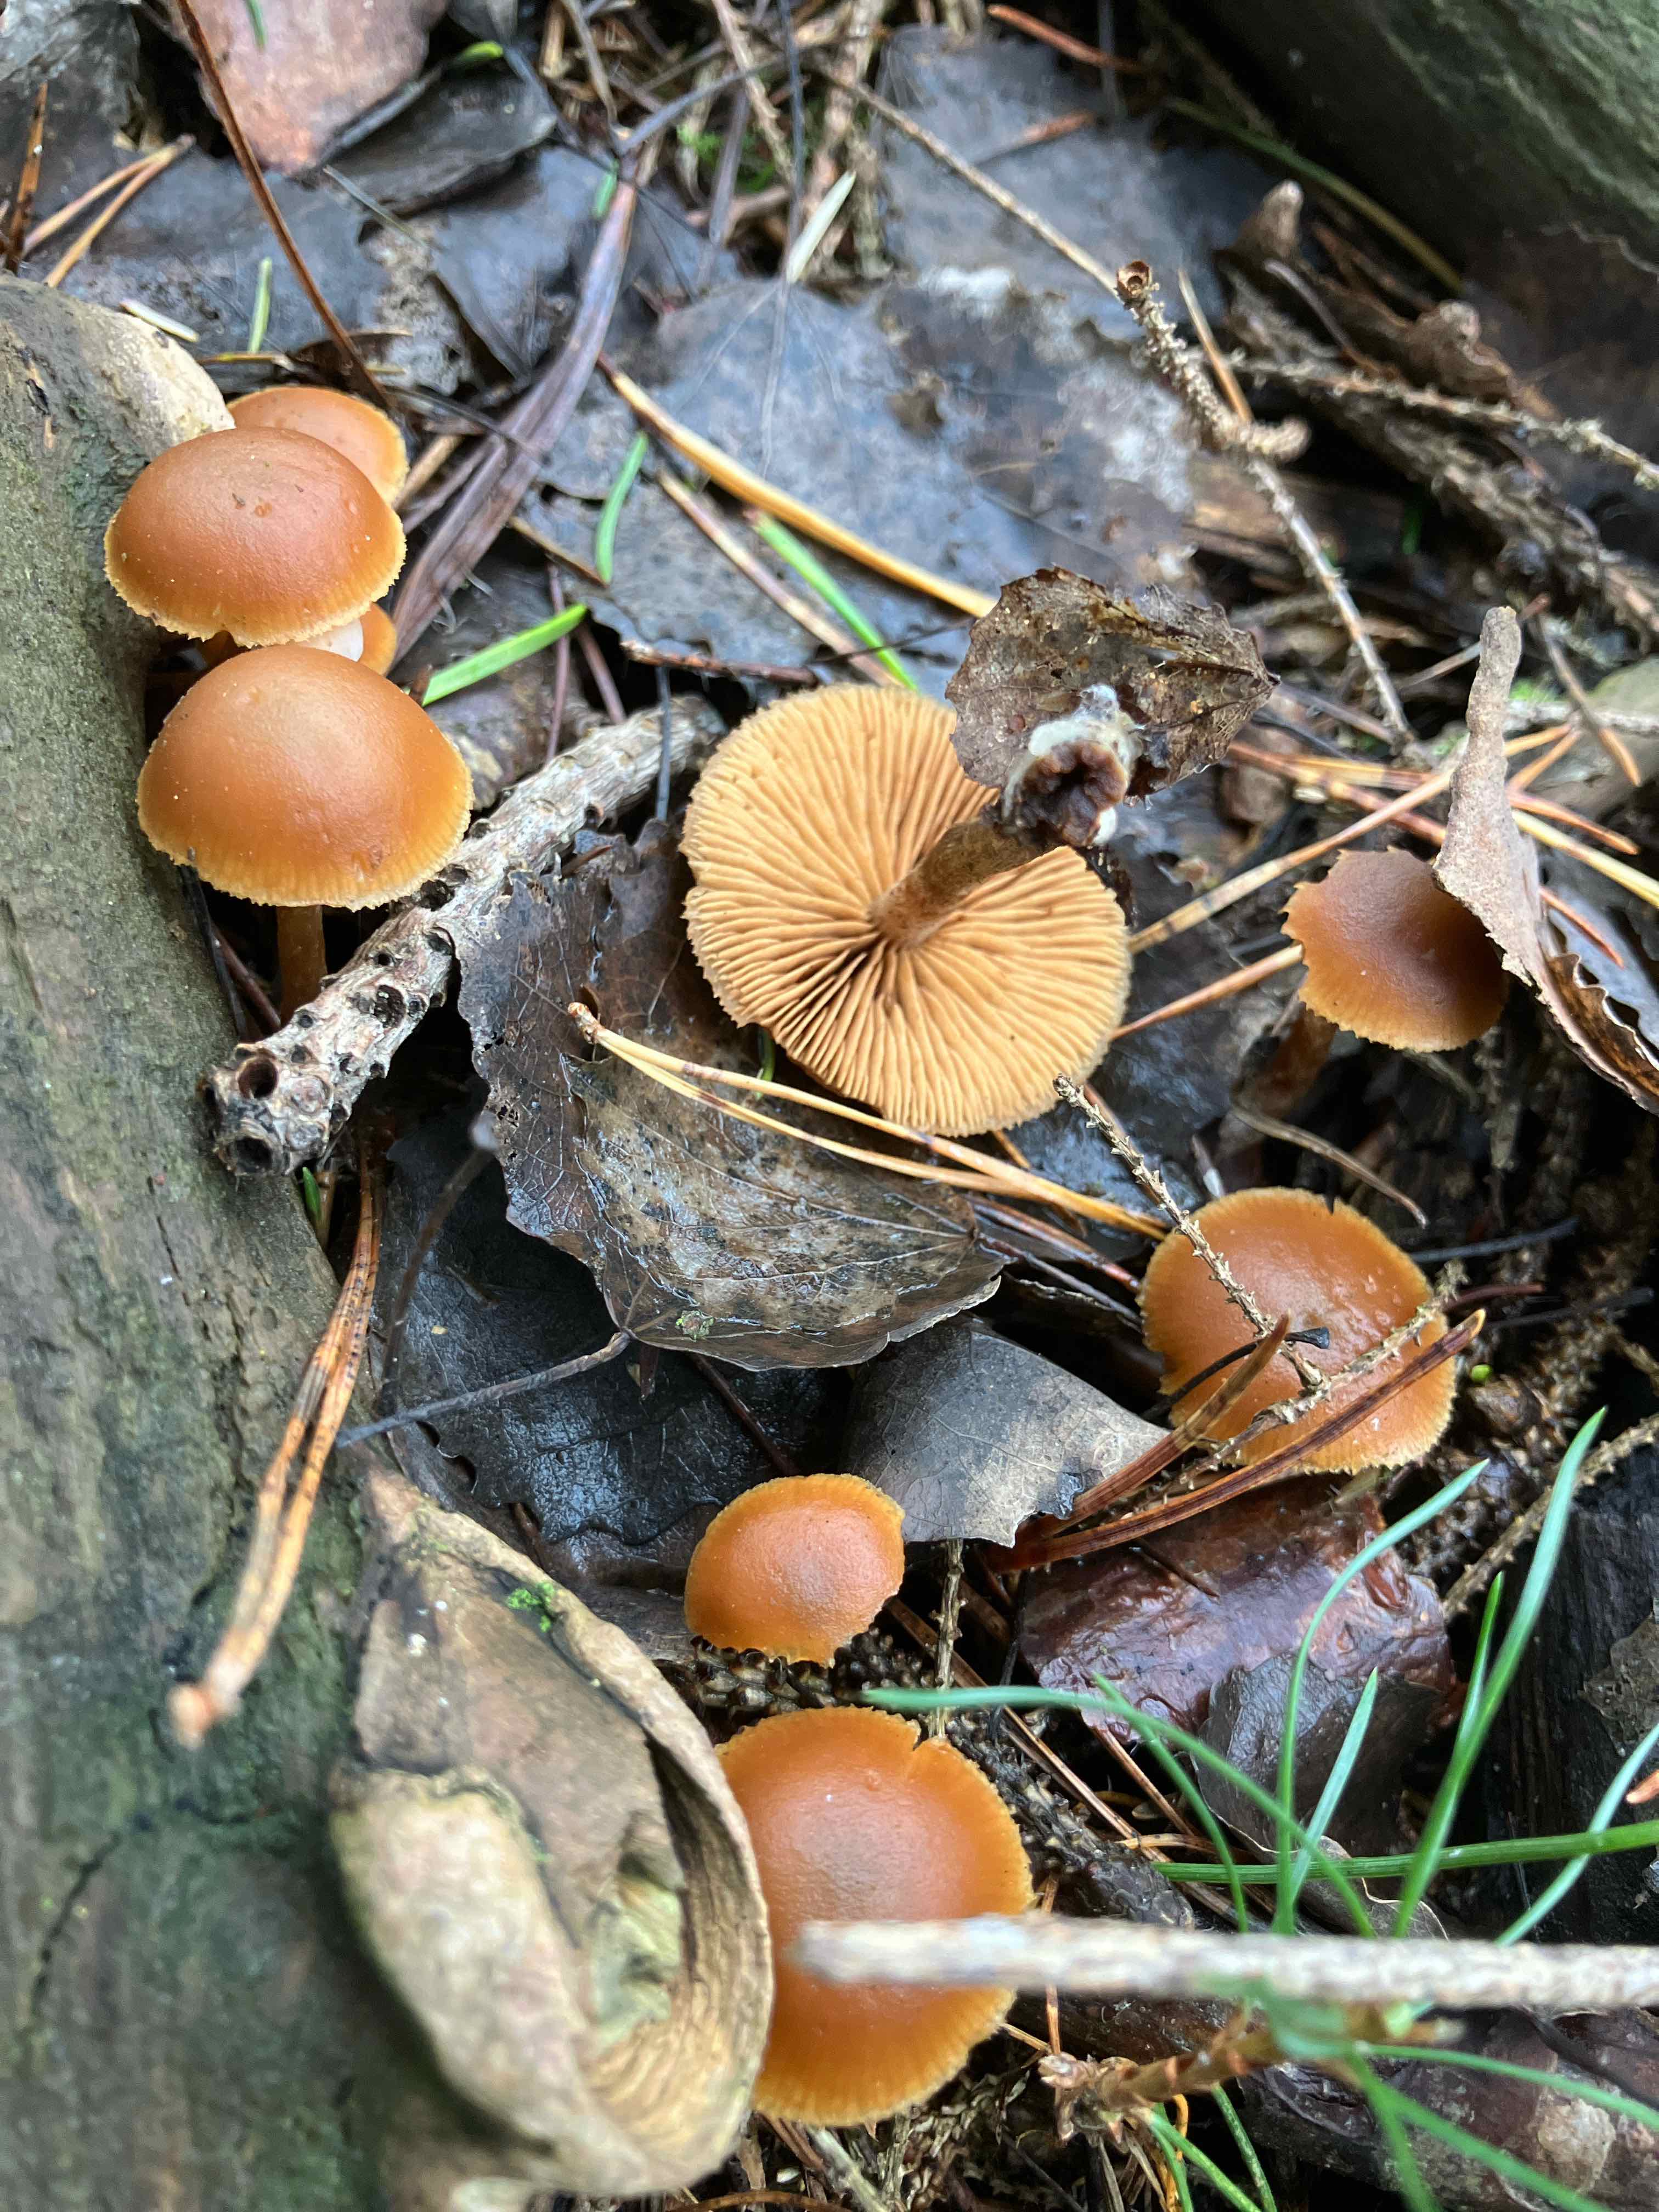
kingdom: Fungi
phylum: Basidiomycota
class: Agaricomycetes
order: Agaricales
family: Hymenogastraceae
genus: Galerina
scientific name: Galerina
